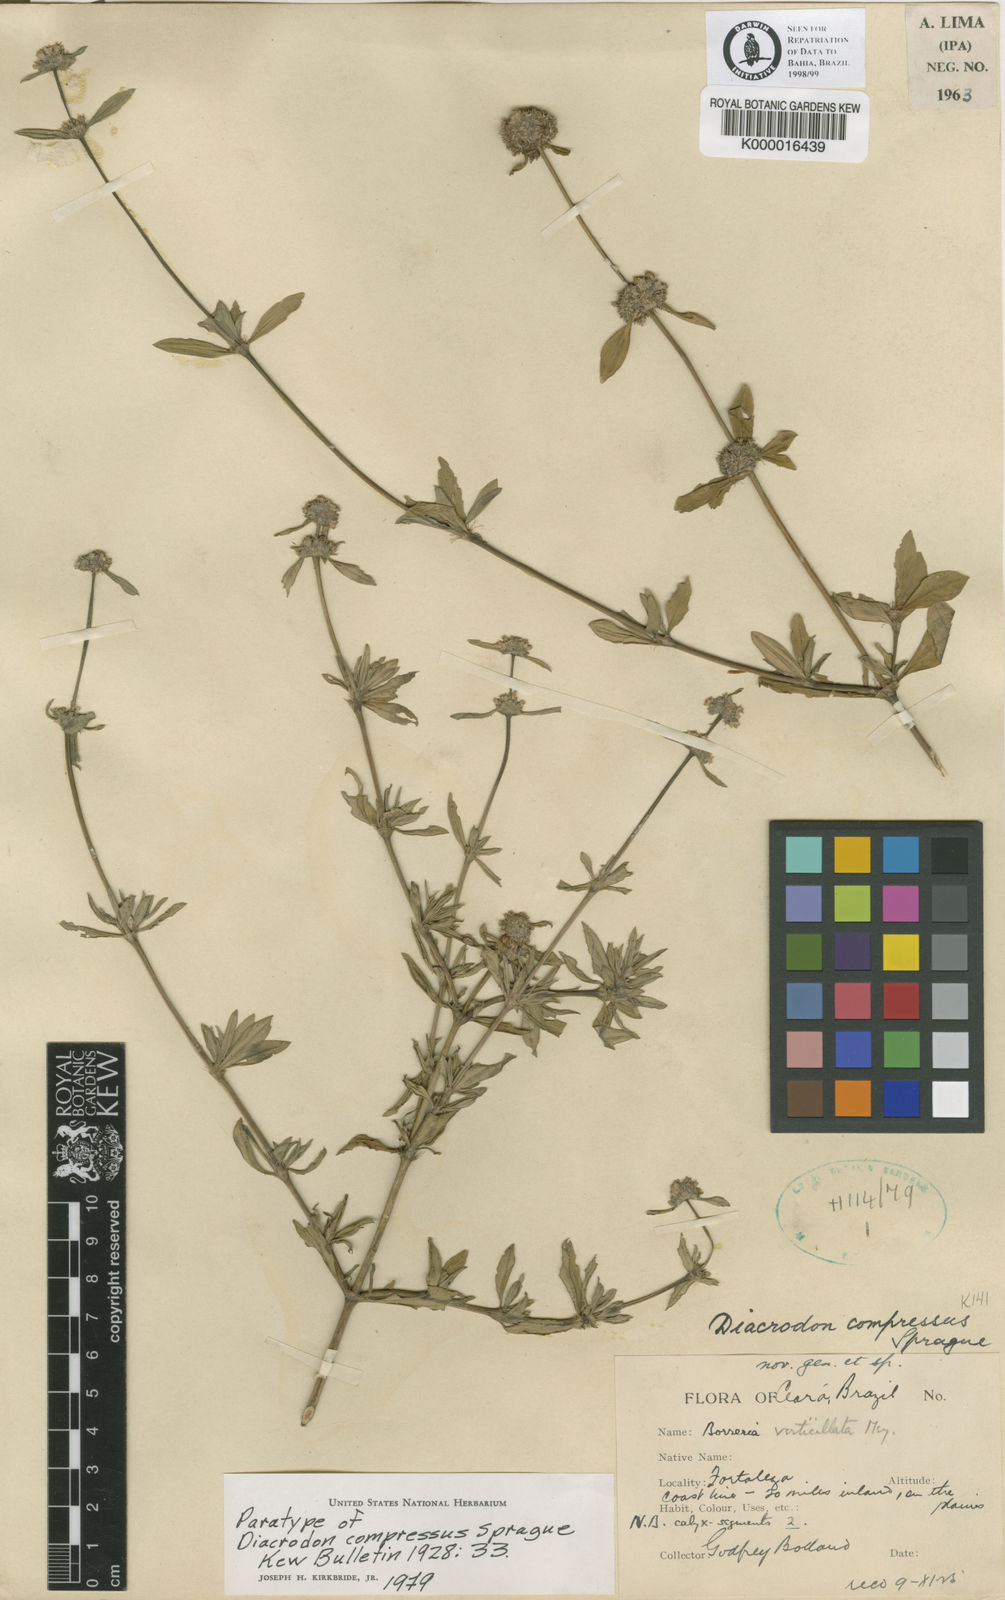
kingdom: Plantae
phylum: Tracheophyta
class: Magnoliopsida
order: Gentianales
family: Rubiaceae
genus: Diacrodon
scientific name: Diacrodon compressus
